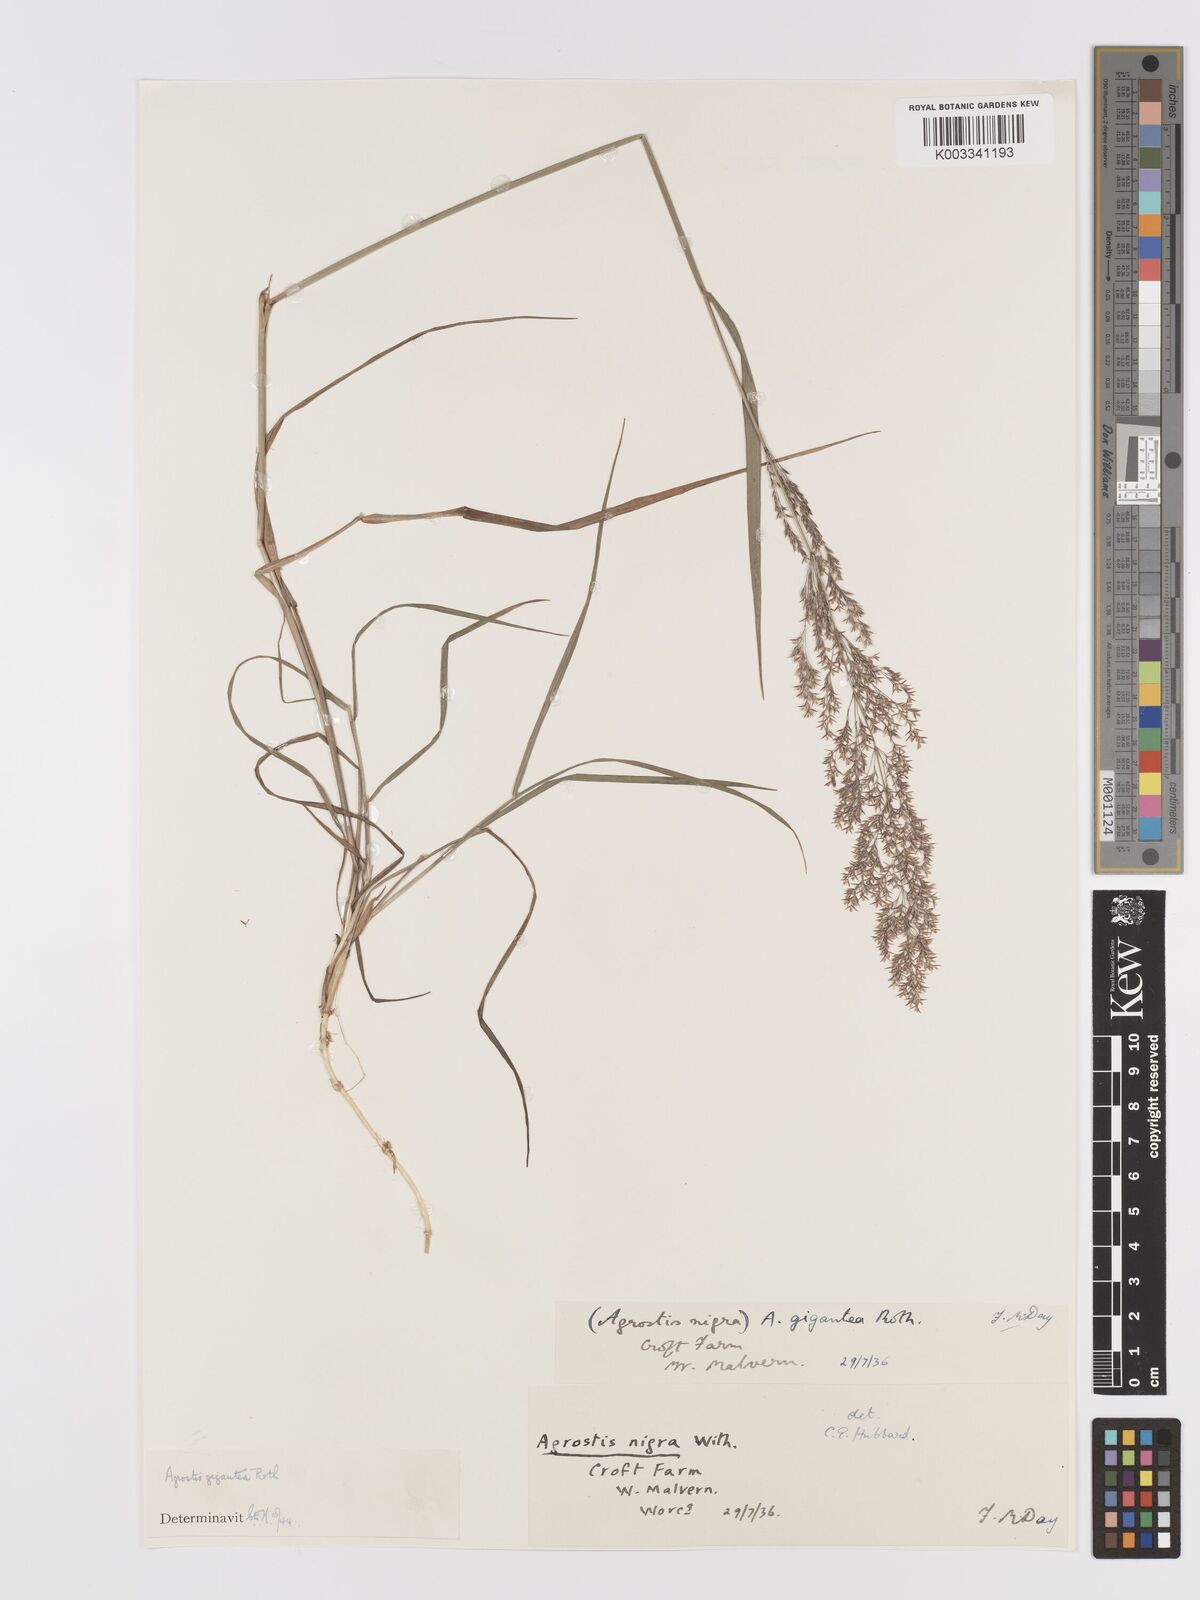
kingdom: Plantae
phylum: Tracheophyta
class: Liliopsida
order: Poales
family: Poaceae
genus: Agrostis
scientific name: Agrostis gigantea
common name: Black bent
